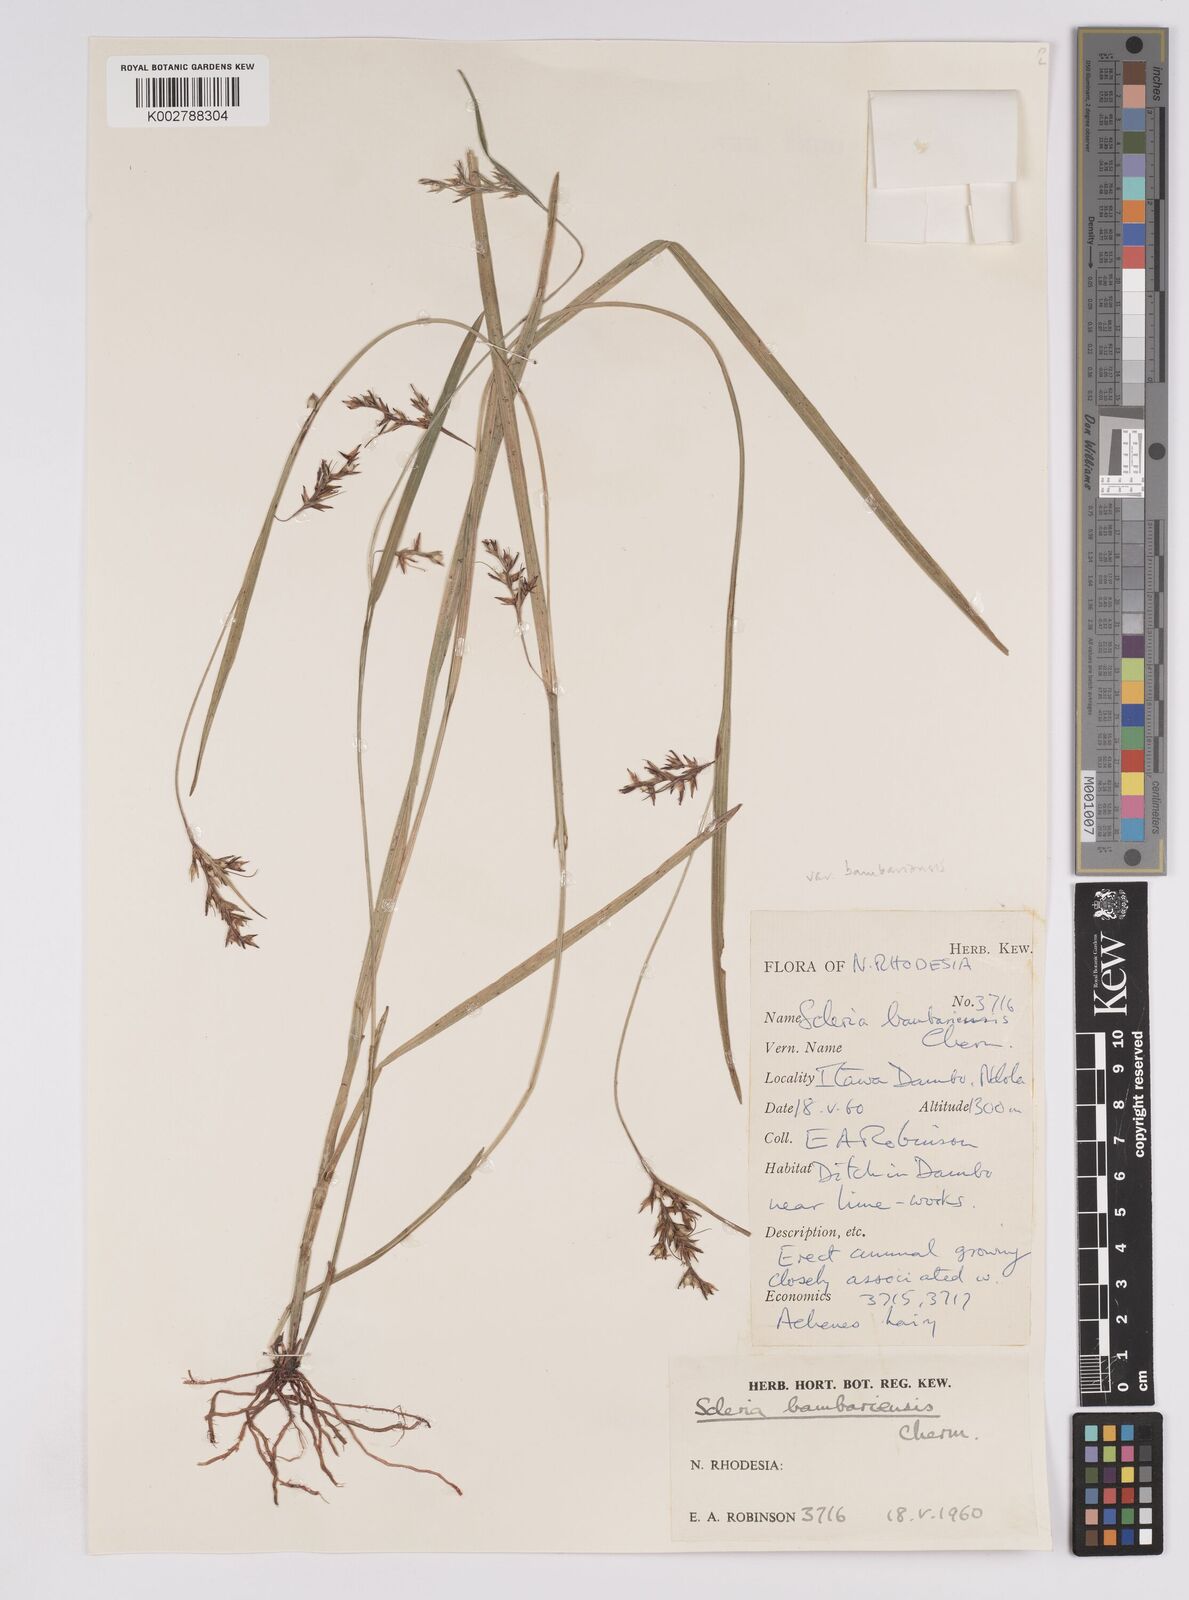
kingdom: Plantae
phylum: Tracheophyta
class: Liliopsida
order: Poales
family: Cyperaceae
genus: Scleria
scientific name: Scleria bambariensis
